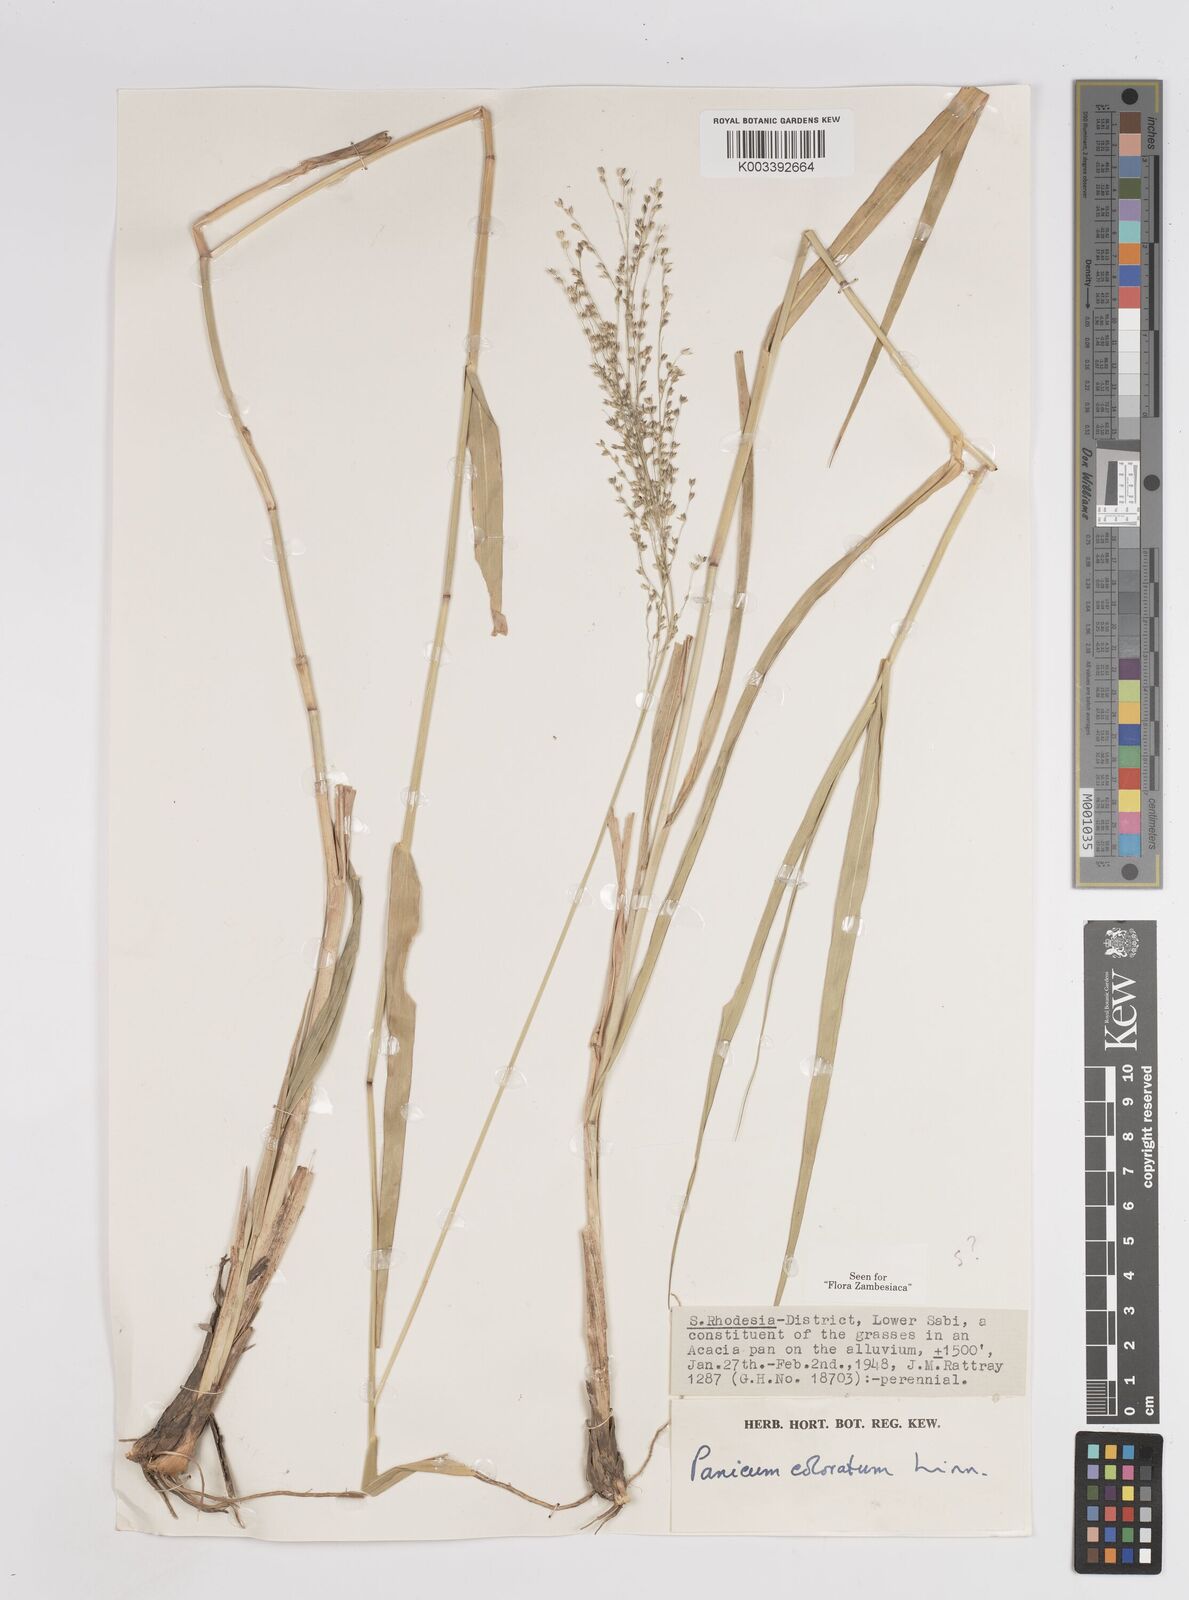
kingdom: Plantae
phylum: Tracheophyta
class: Liliopsida
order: Poales
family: Poaceae
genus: Panicum
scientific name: Panicum coloratum
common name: Kleingrass
